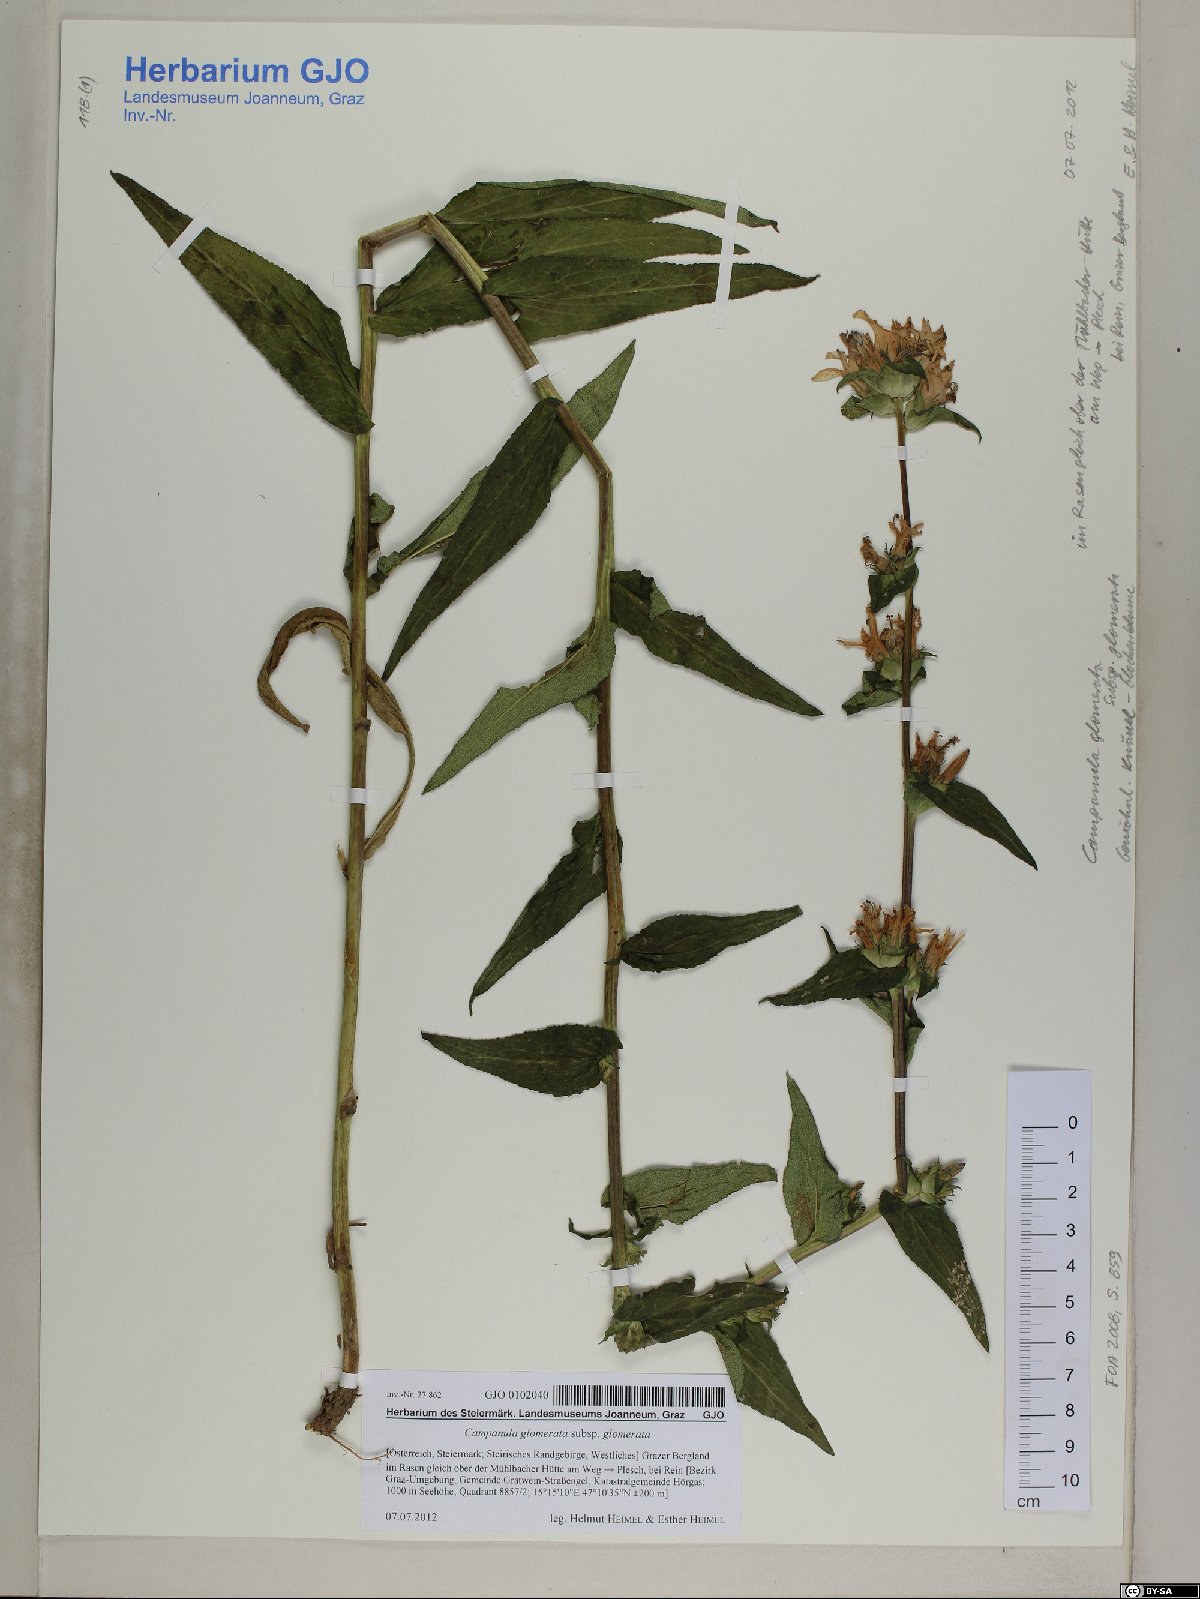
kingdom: Plantae
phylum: Tracheophyta
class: Magnoliopsida
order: Asterales
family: Campanulaceae
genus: Campanula
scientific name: Campanula glomerata
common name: Clustered bellflower
